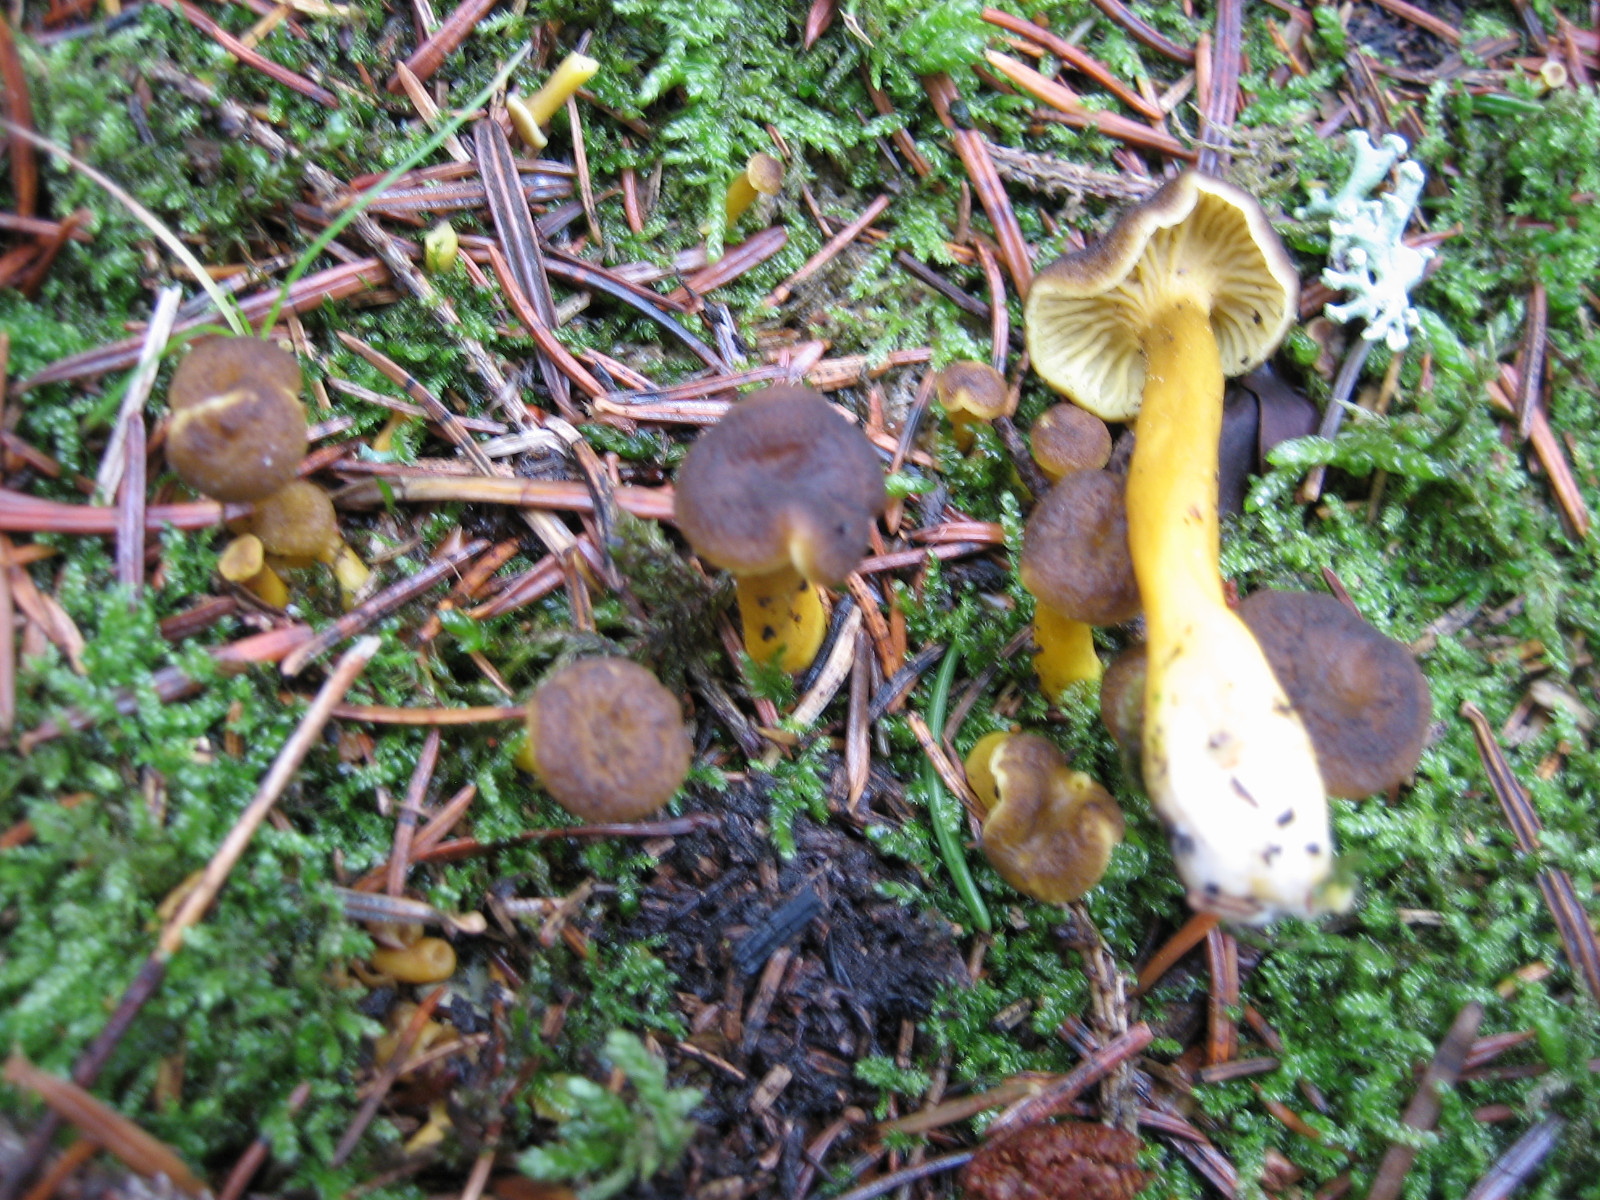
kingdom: Fungi
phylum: Basidiomycota
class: Agaricomycetes
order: Cantharellales
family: Hydnaceae
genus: Craterellus
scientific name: Craterellus tubaeformis
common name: tragt-kantarel
